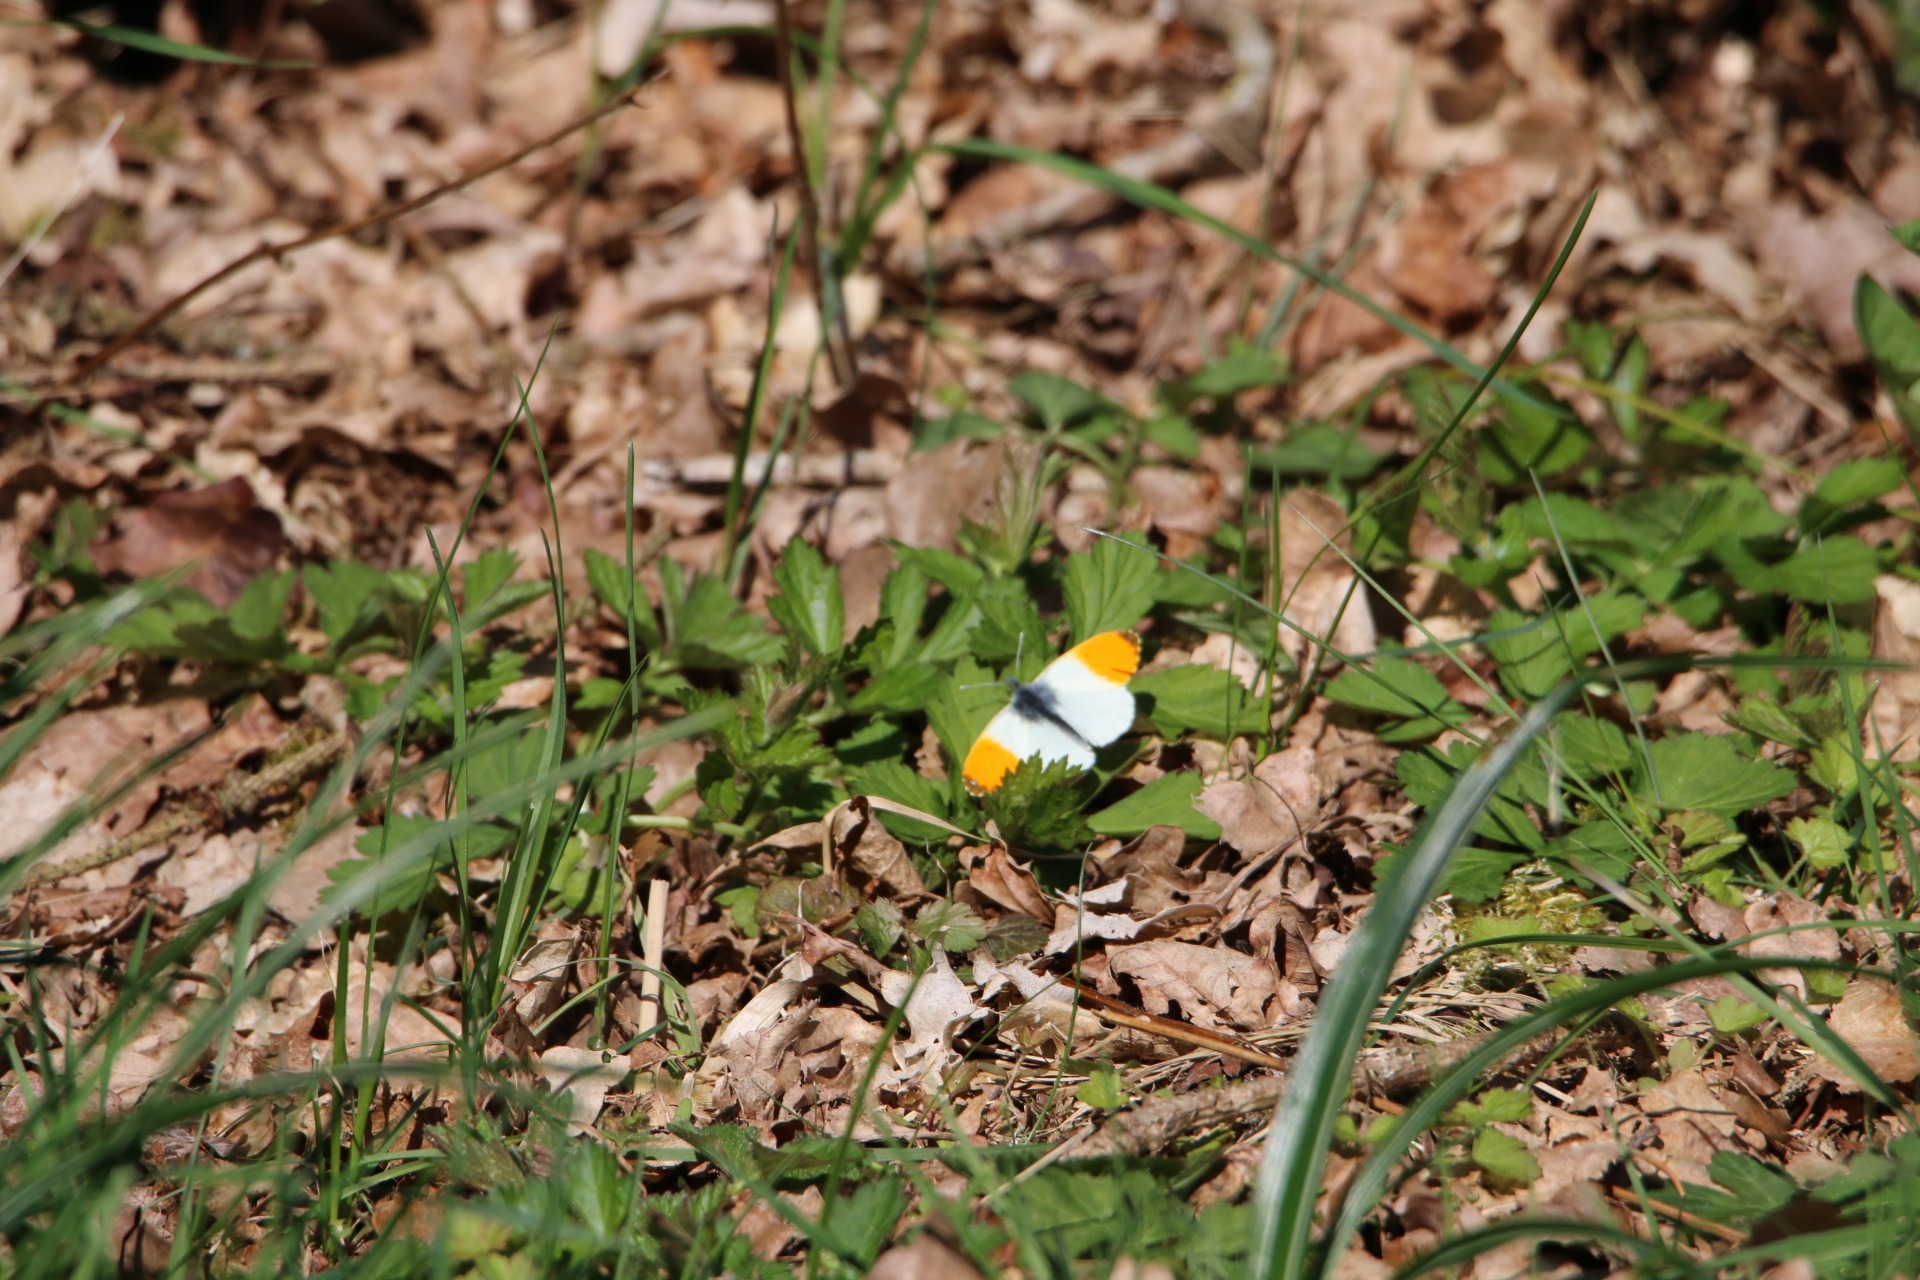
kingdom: Animalia
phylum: Arthropoda
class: Insecta
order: Lepidoptera
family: Pieridae
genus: Anthocharis
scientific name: Anthocharis cardamines
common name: Aurora
